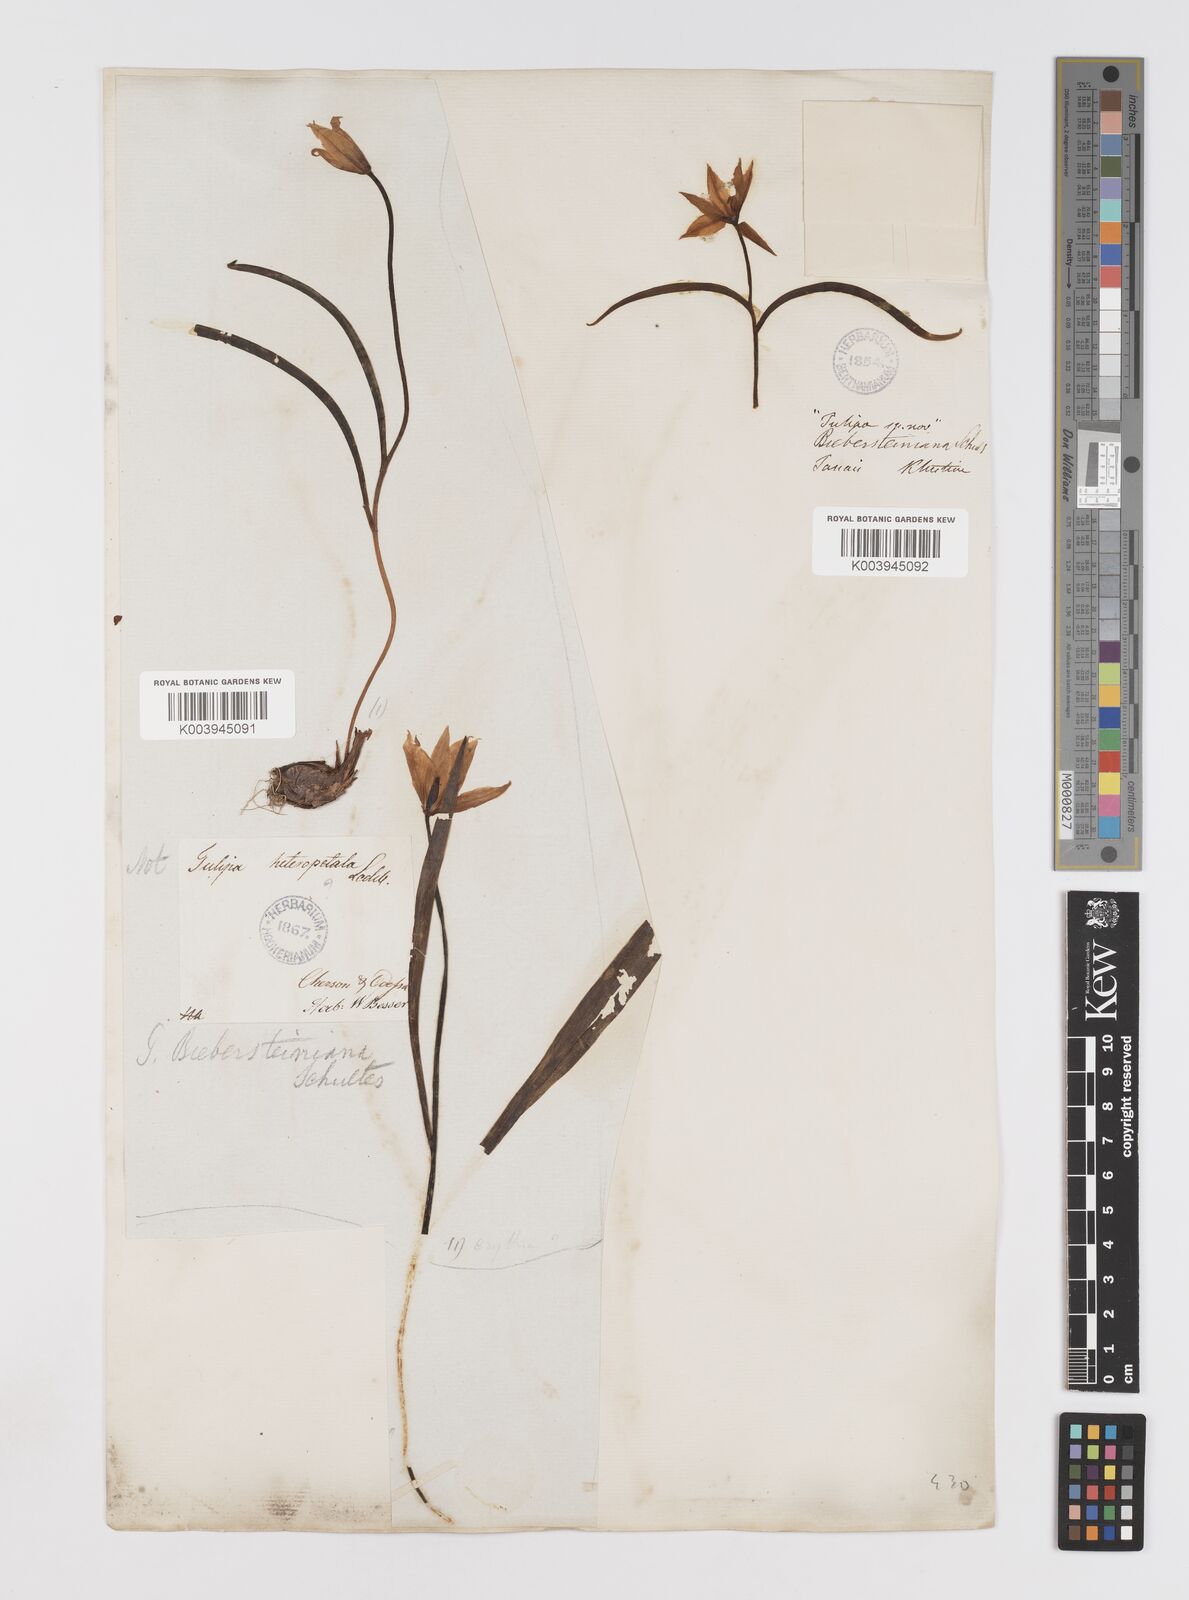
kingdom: Plantae
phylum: Tracheophyta
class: Liliopsida
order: Liliales
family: Liliaceae
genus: Tulipa
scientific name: Tulipa sylvestris
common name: Wild tulip
